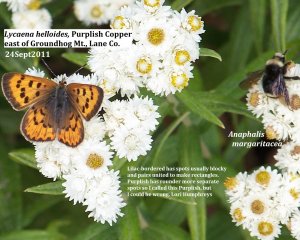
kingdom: Animalia
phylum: Arthropoda
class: Insecta
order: Lepidoptera
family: Sesiidae
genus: Sesia
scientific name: Sesia Lycaena helloides
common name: Purplish Copper
